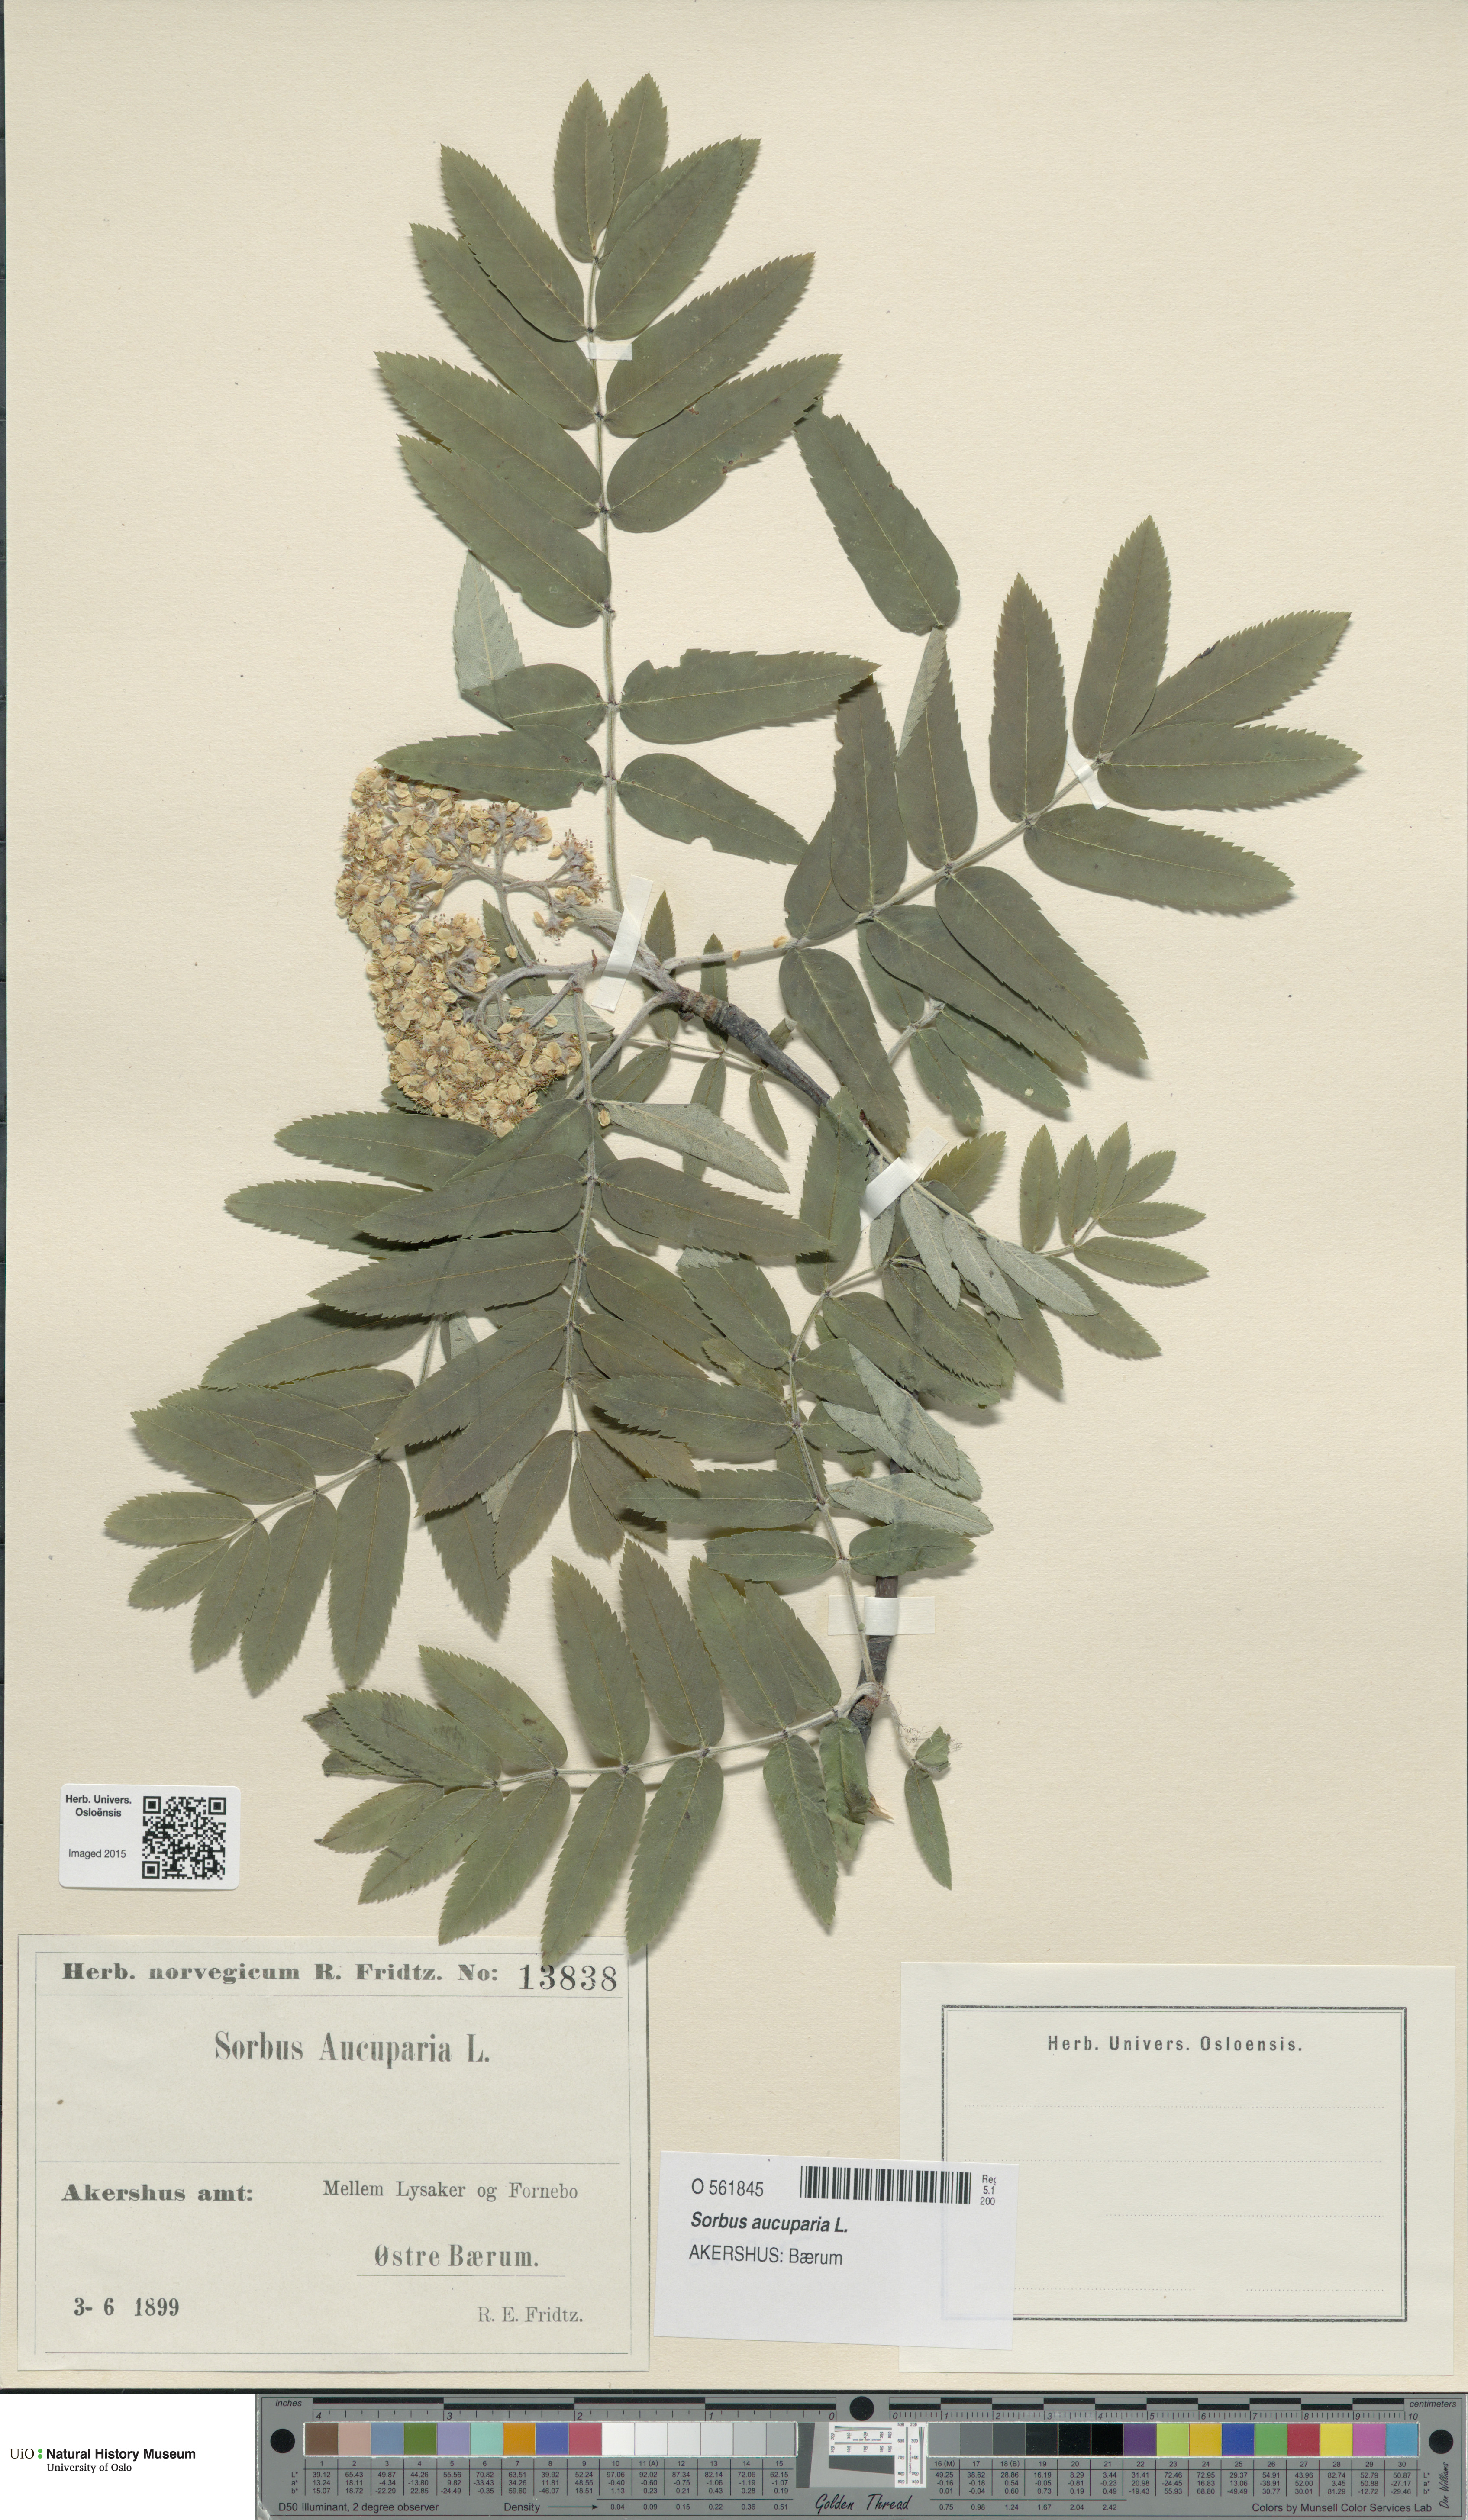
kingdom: Plantae
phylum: Tracheophyta
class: Magnoliopsida
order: Rosales
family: Rosaceae
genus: Sorbus
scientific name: Sorbus aucuparia
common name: Rowan
